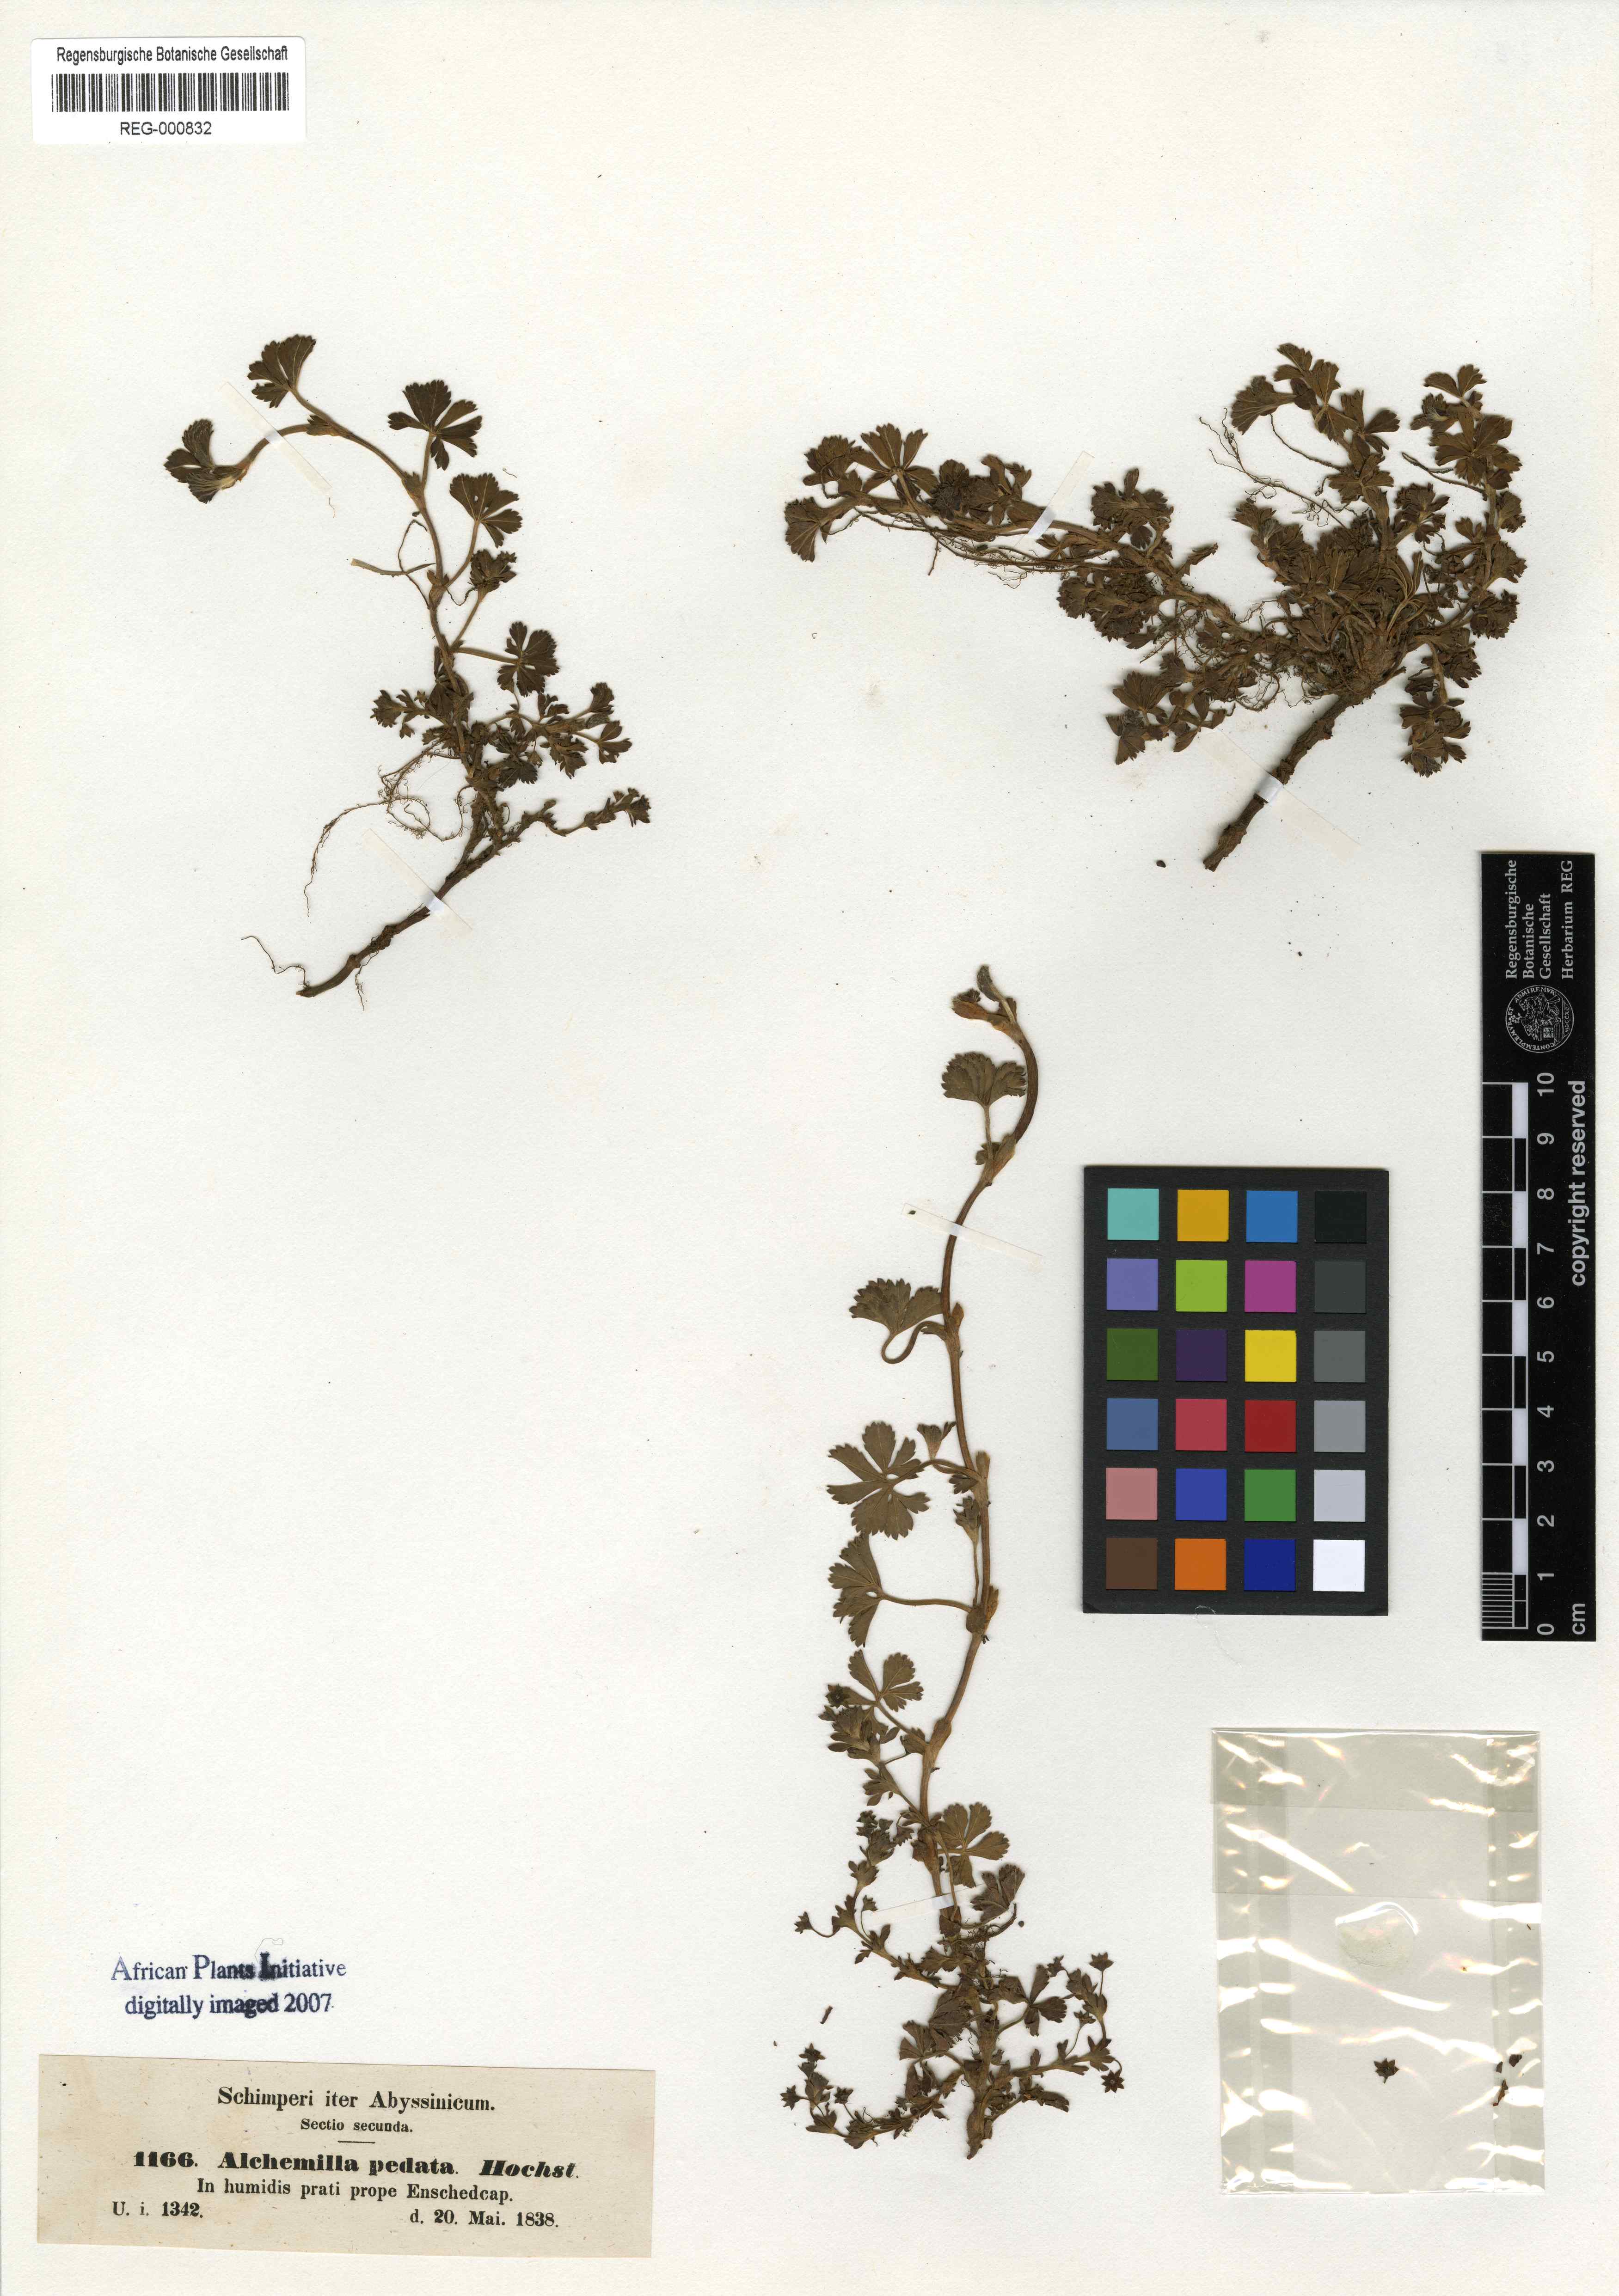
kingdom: Plantae
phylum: Tracheophyta
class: Magnoliopsida
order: Rosales
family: Rosaceae
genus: Alchemilla
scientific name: Alchemilla pedata
